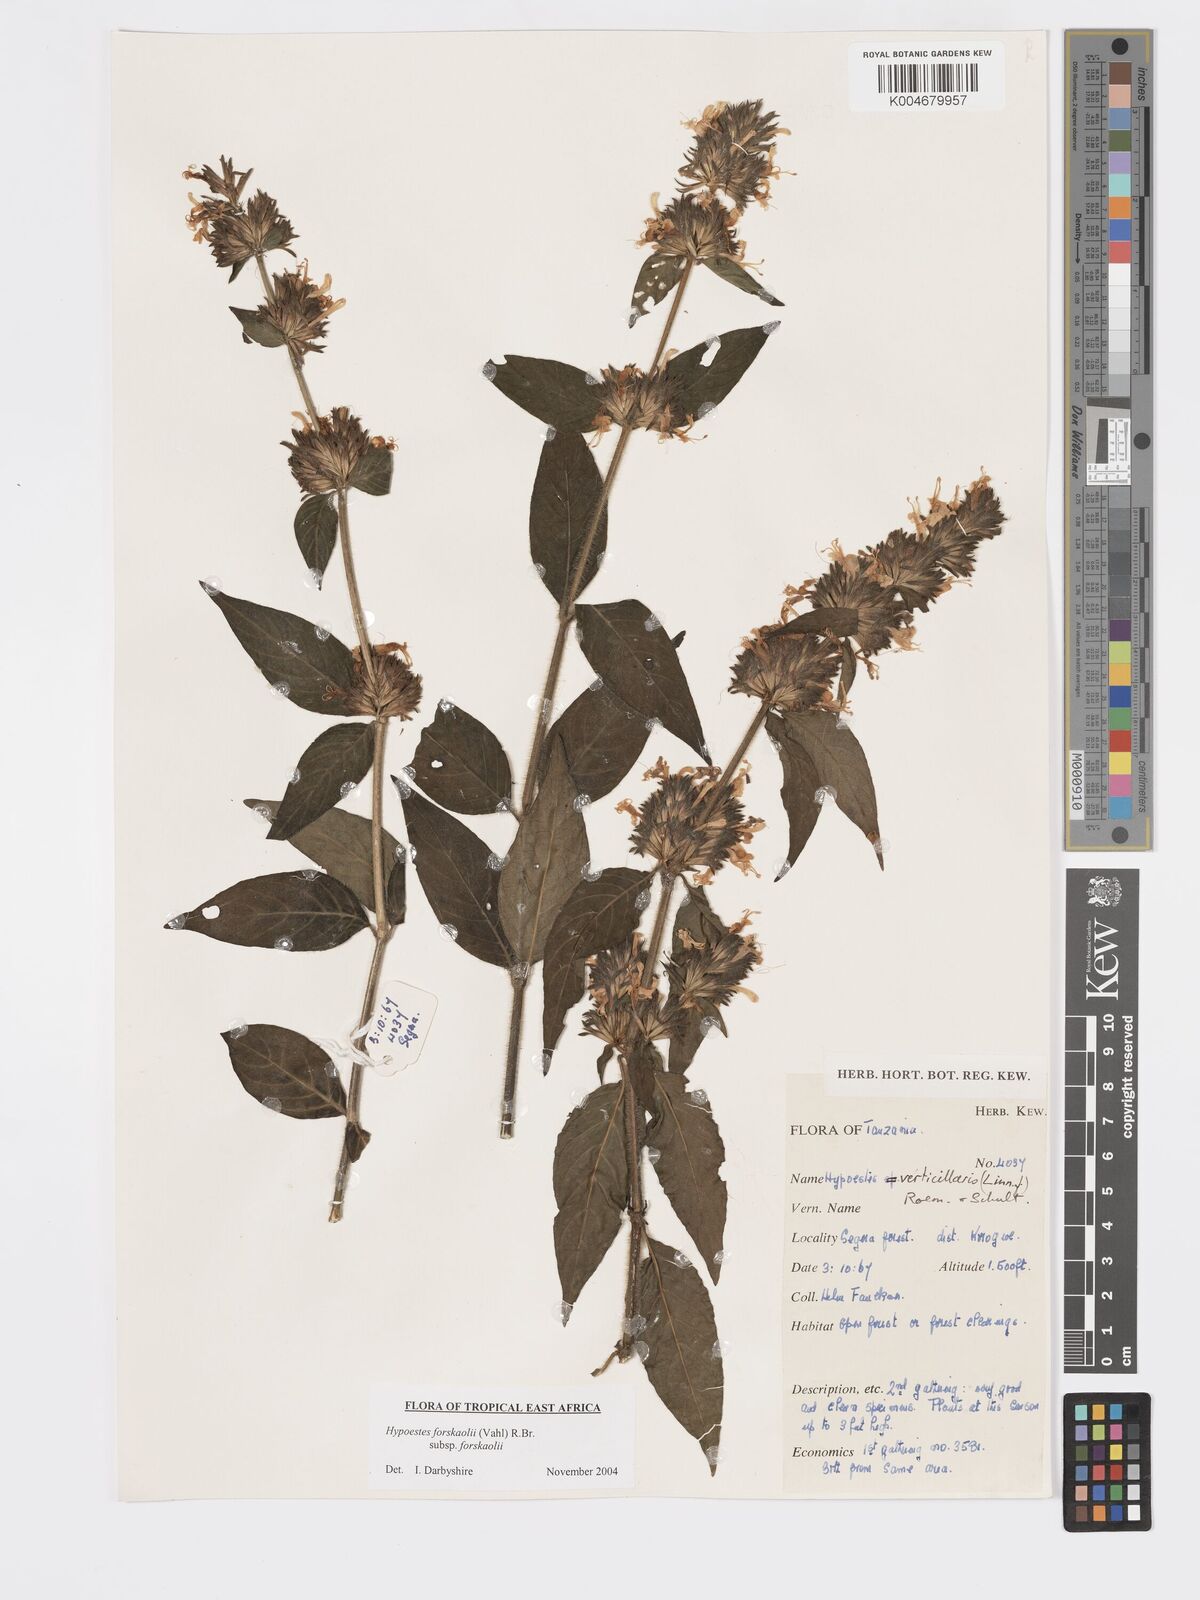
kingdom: Plantae
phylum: Tracheophyta
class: Magnoliopsida
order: Lamiales
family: Acanthaceae
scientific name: Acanthaceae
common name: Acanthaceae
